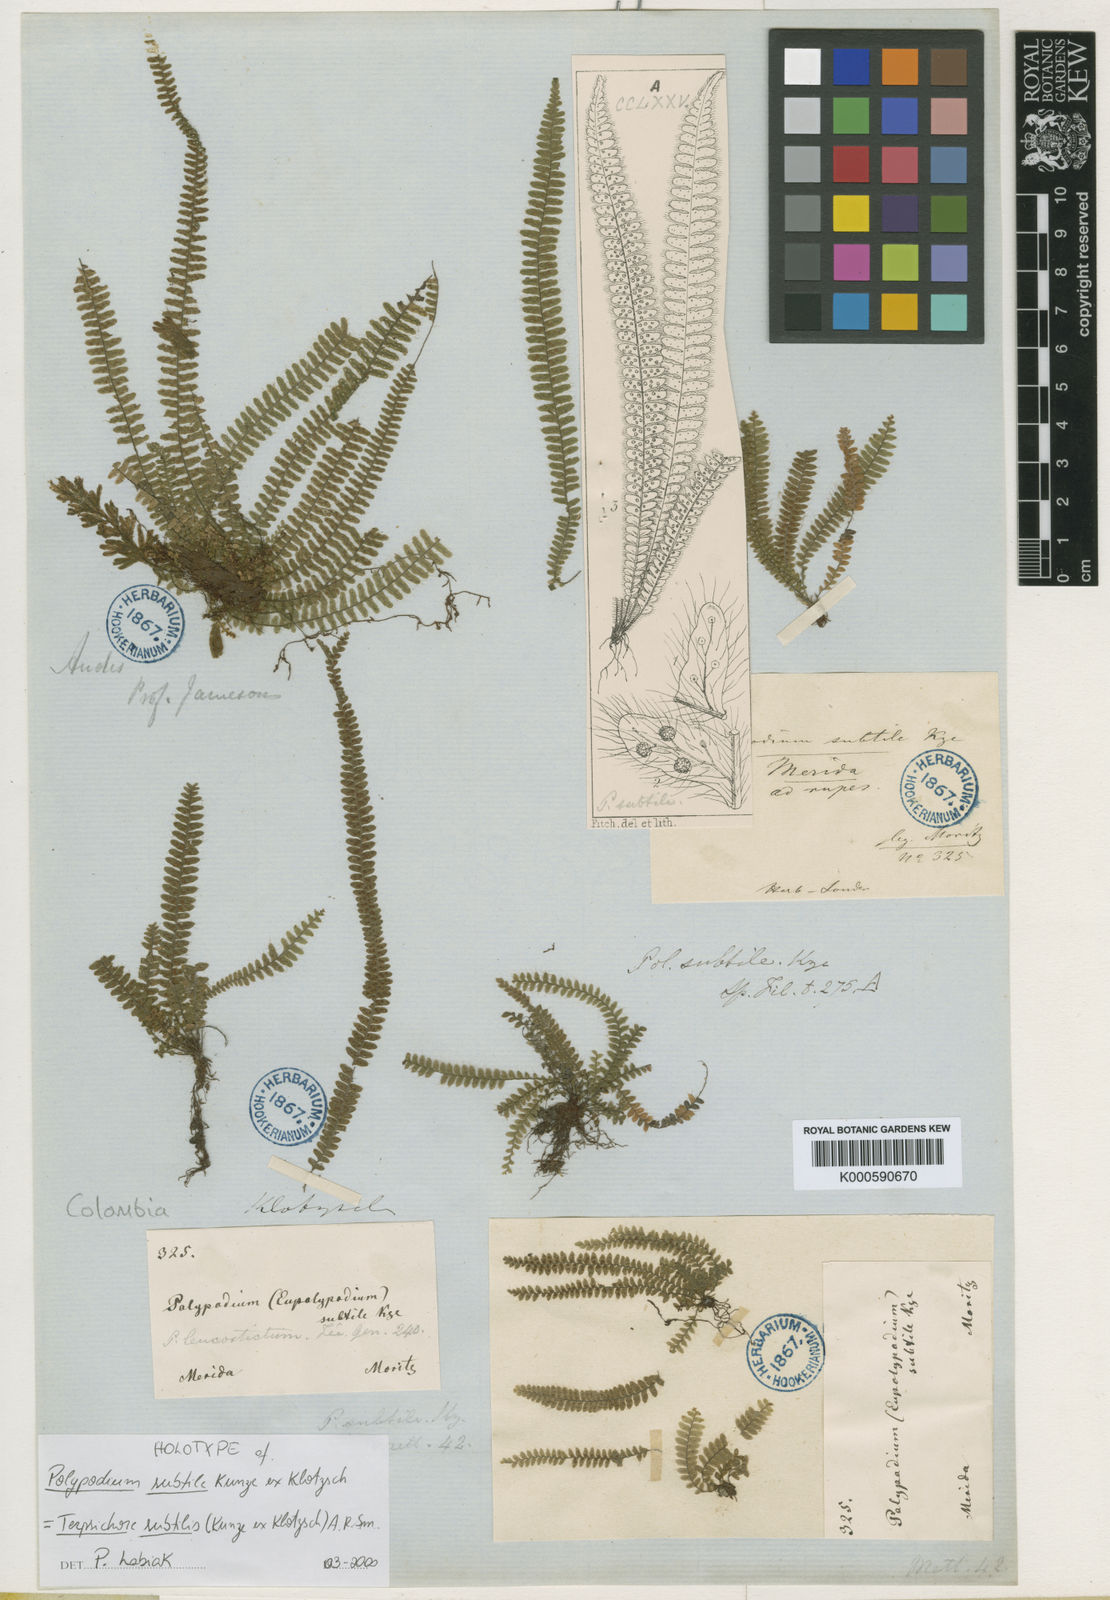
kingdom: Plantae
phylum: Tracheophyta
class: Polypodiopsida
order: Polypodiales
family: Polypodiaceae
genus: Mycopteris
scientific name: Mycopteris subtilis
